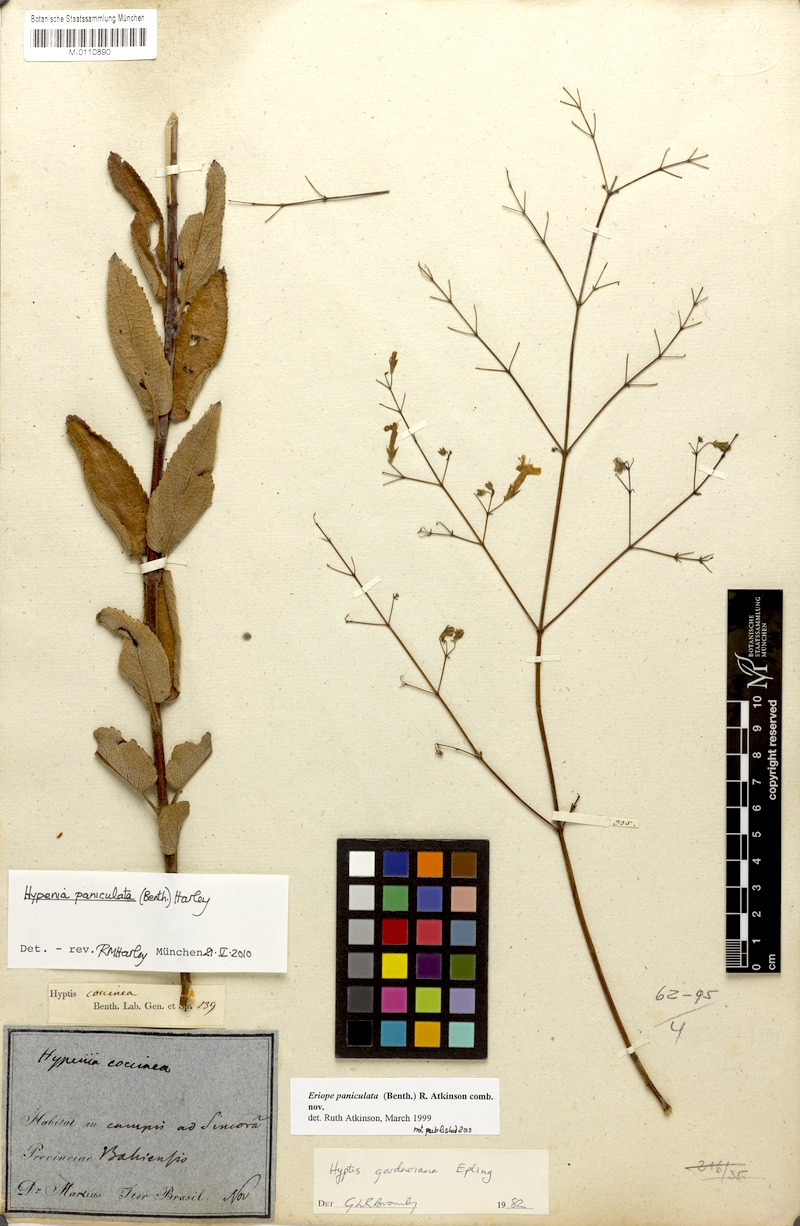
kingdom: Plantae
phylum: Tracheophyta
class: Magnoliopsida
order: Lamiales
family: Lamiaceae
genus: Hypenia
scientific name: Hypenia paniculata
